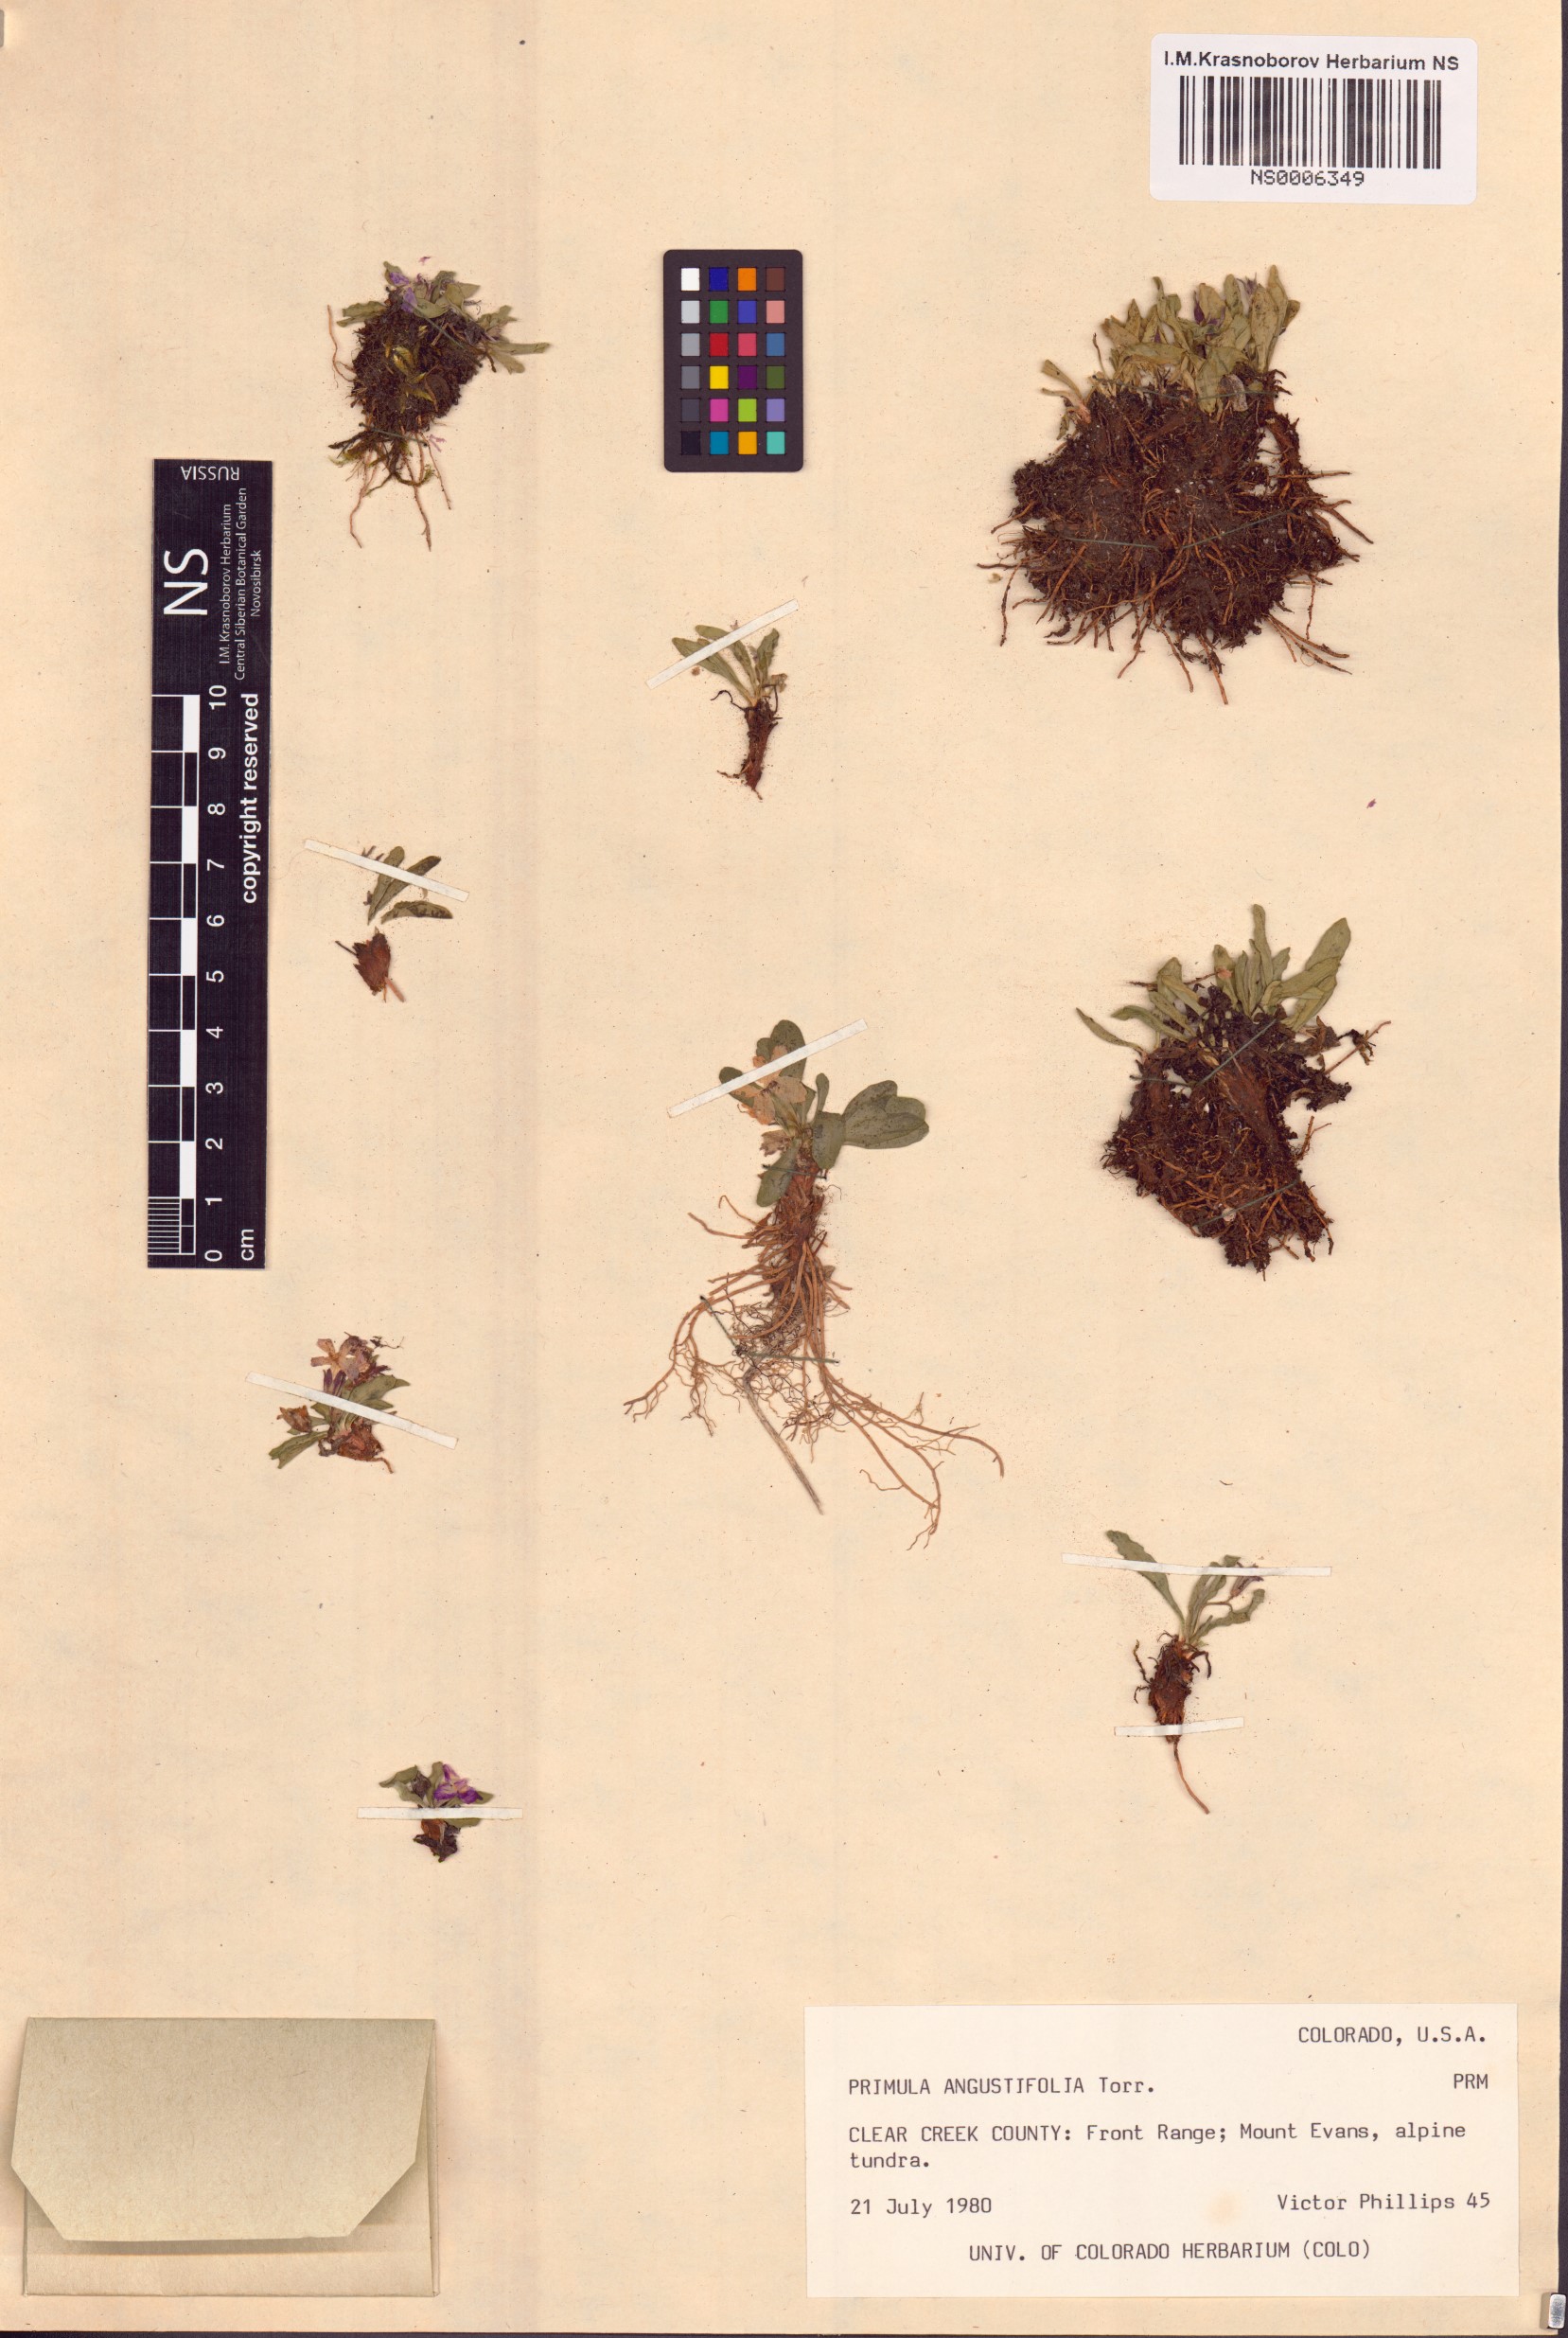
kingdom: Plantae
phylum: Tracheophyta
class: Magnoliopsida
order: Ericales
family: Primulaceae
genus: Primula
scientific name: Primula angustifolia
